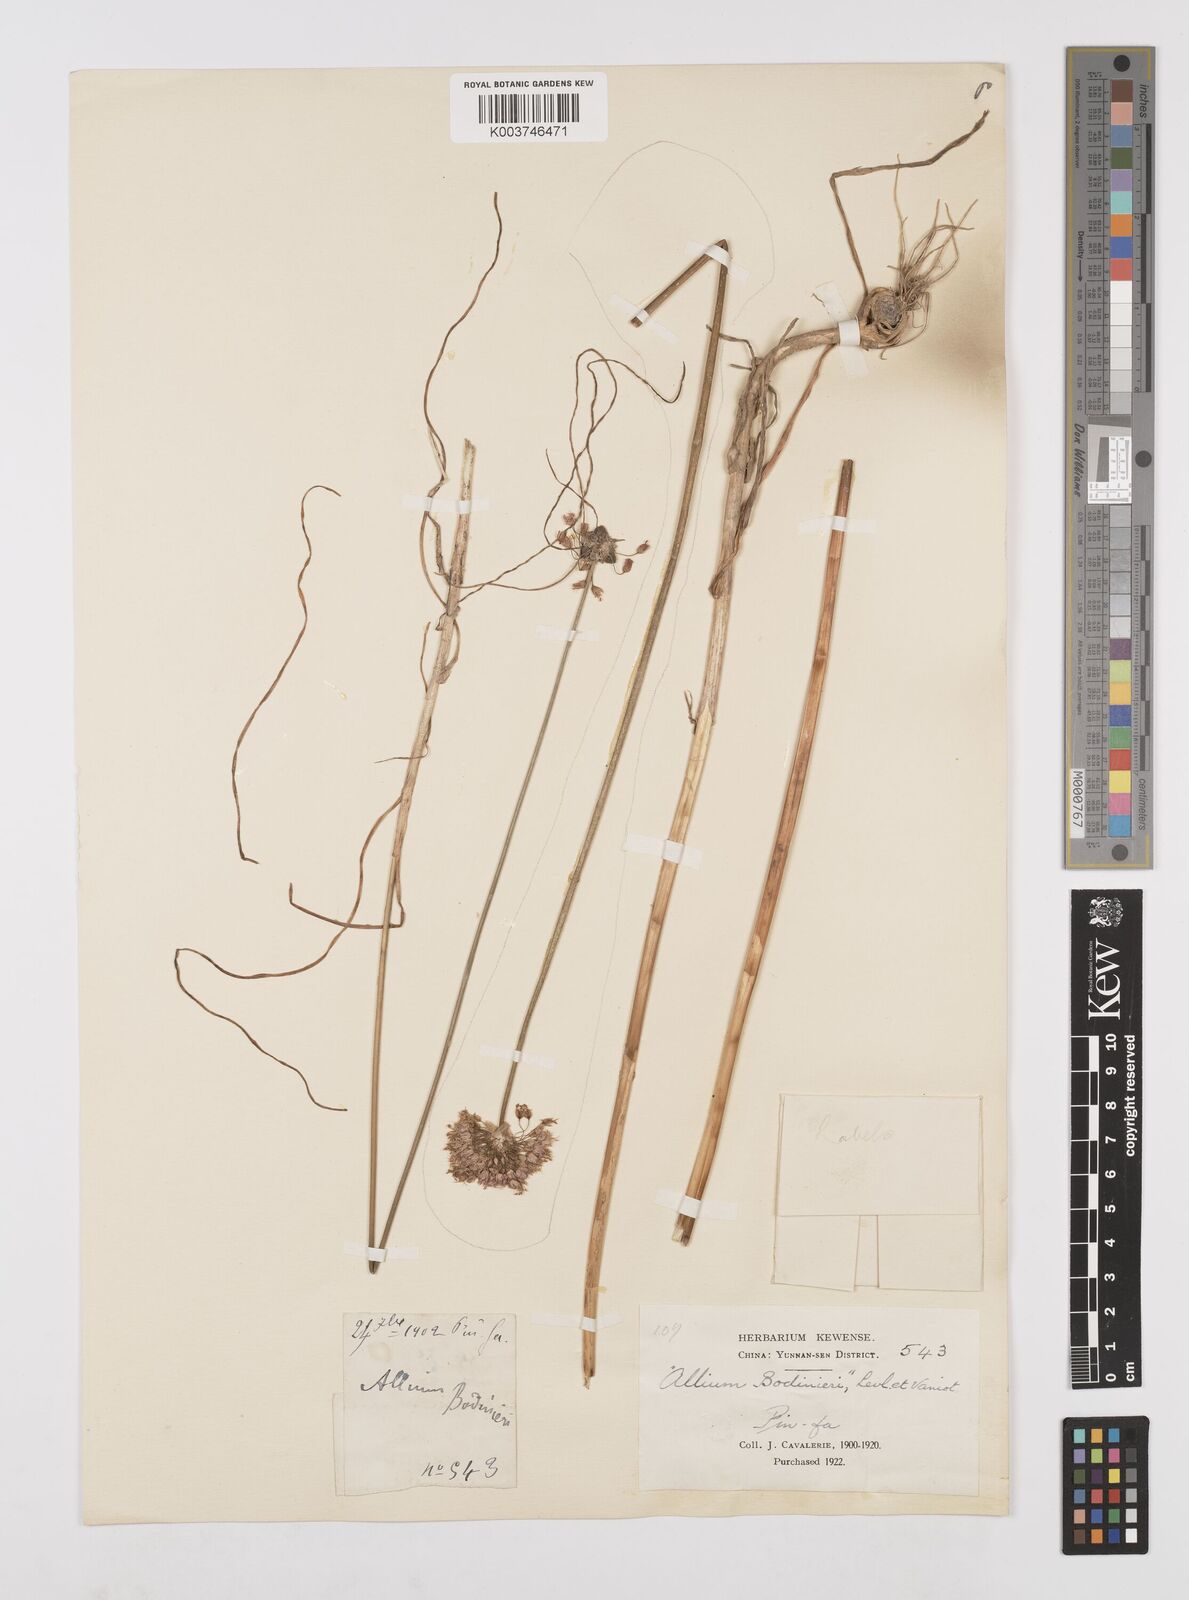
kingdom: Plantae
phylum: Tracheophyta
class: Liliopsida
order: Asparagales
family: Amaryllidaceae
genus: Allium
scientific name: Allium chinense
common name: Japanese scallion
